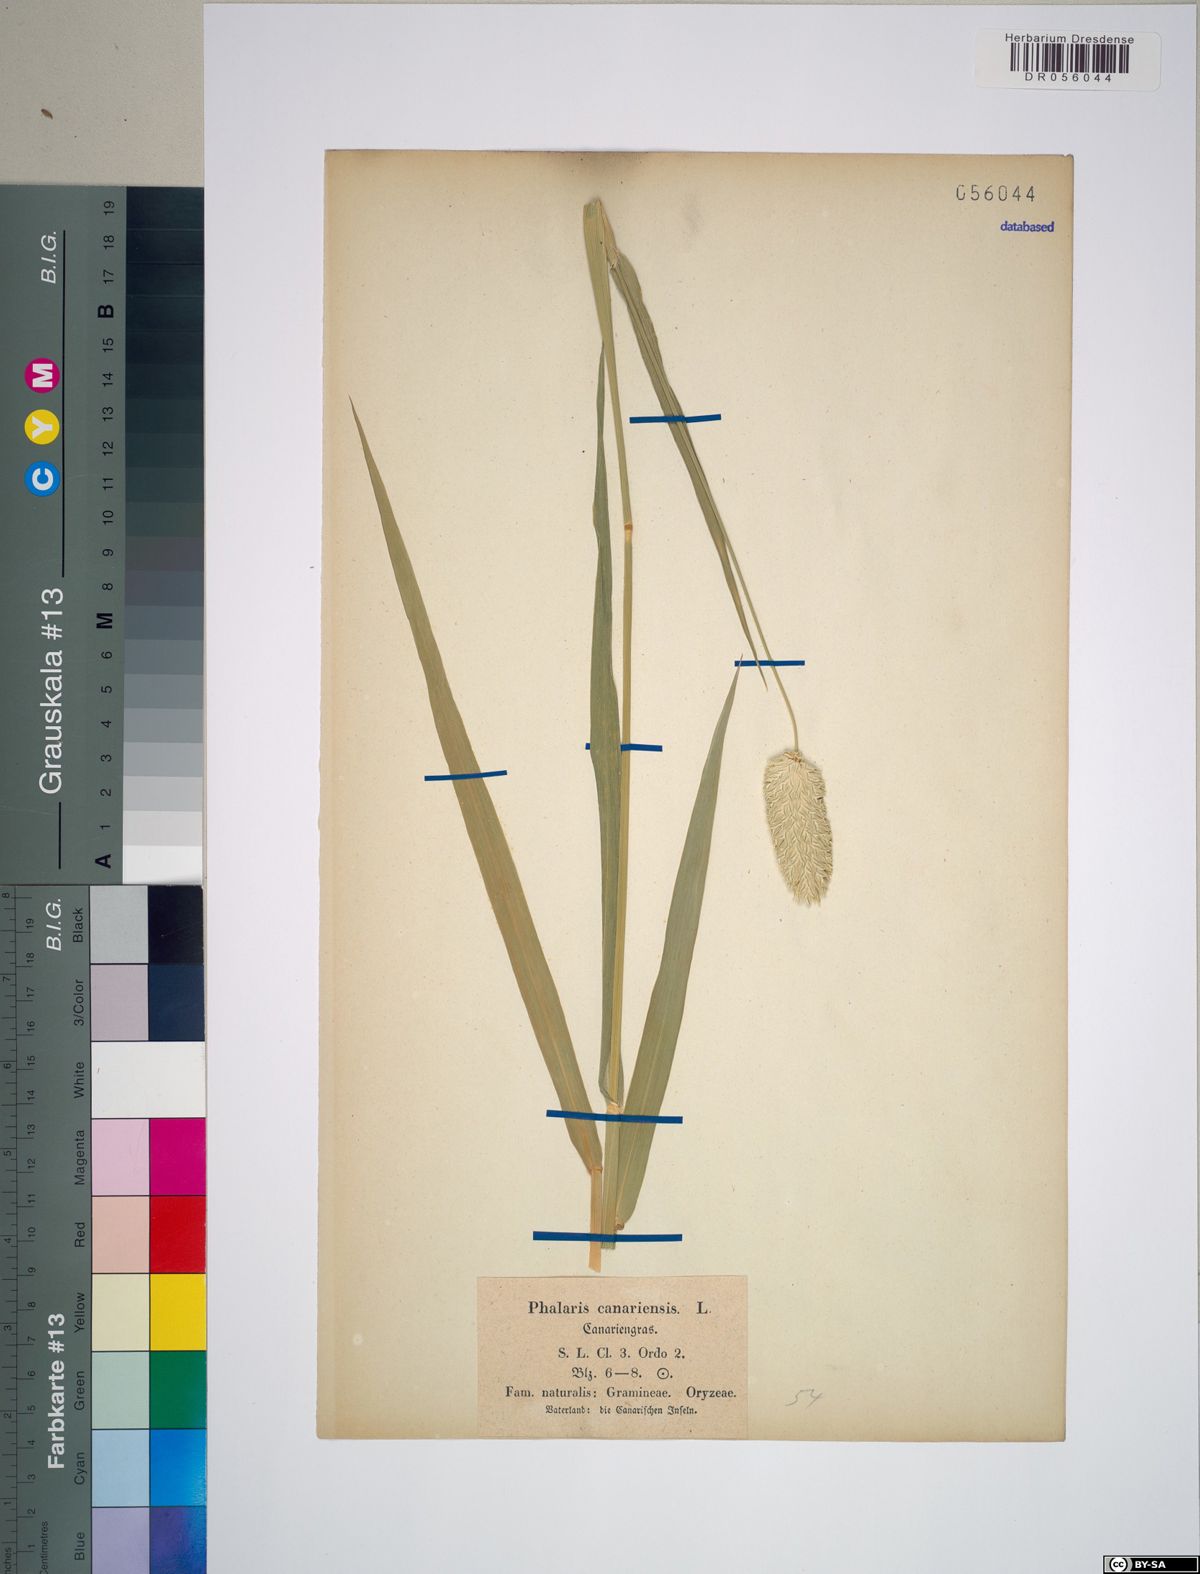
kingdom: Plantae
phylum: Tracheophyta
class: Liliopsida
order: Poales
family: Poaceae
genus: Phalaris
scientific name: Phalaris canariensis
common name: Annual canarygrass
